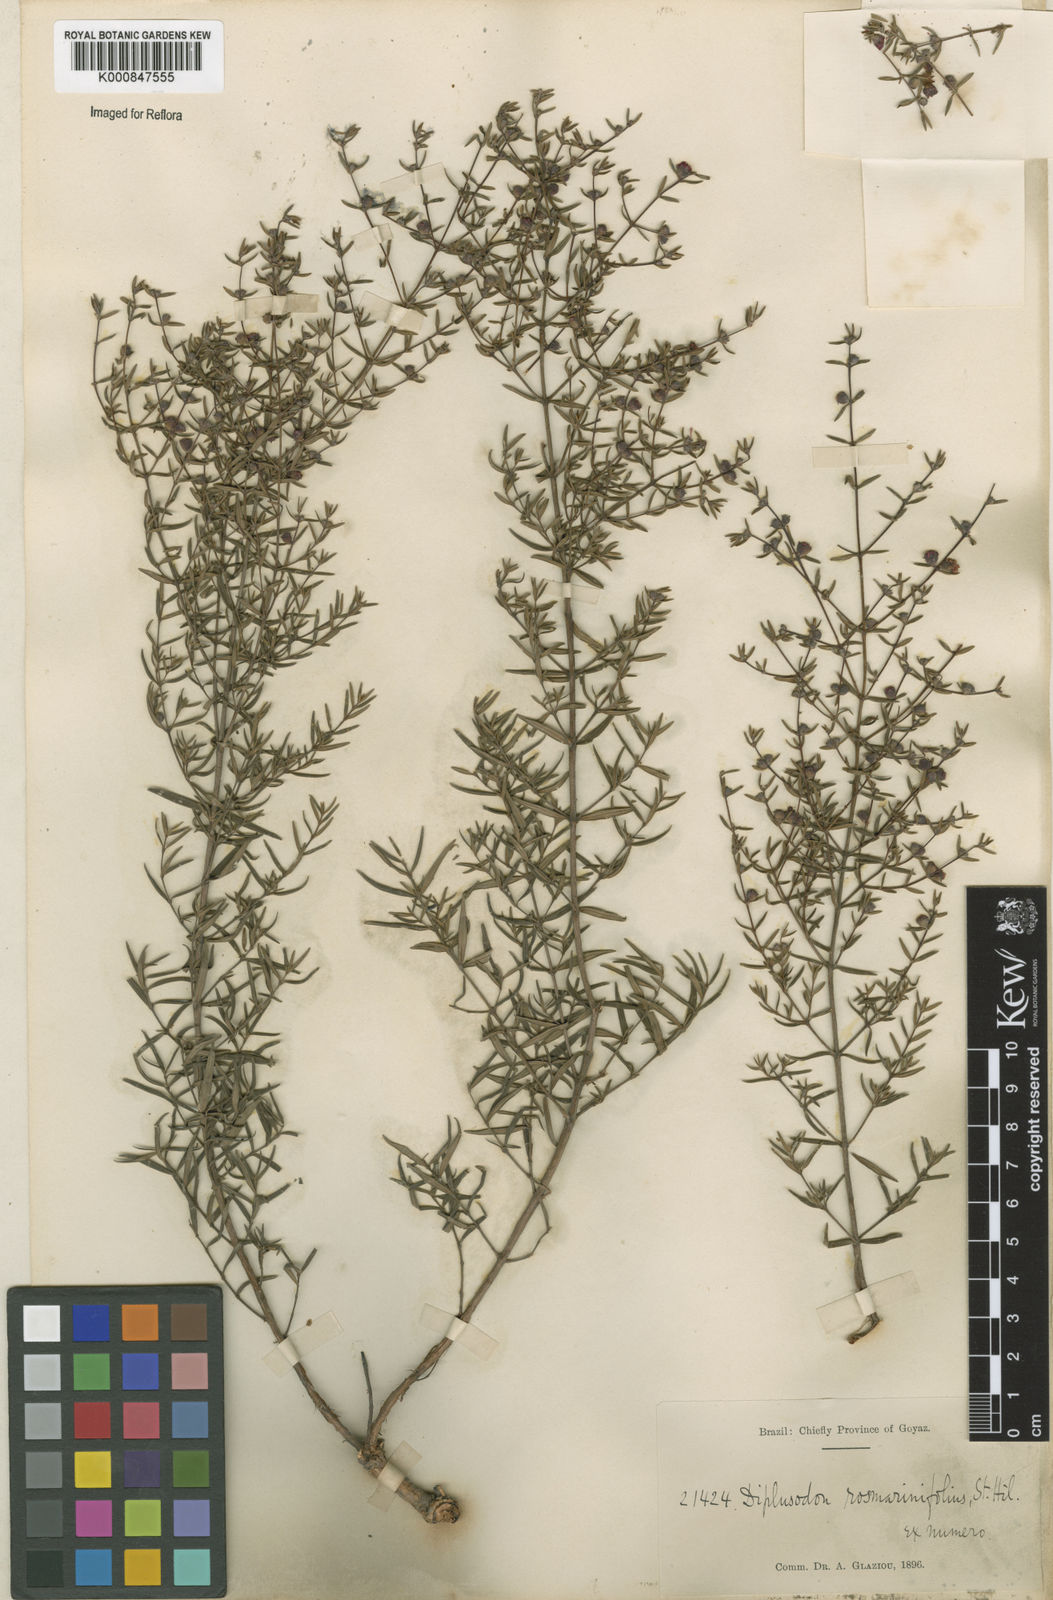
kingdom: Plantae
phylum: Tracheophyta
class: Magnoliopsida
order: Myrtales
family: Lythraceae
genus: Diplusodon
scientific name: Diplusodon rosmarinifolius
